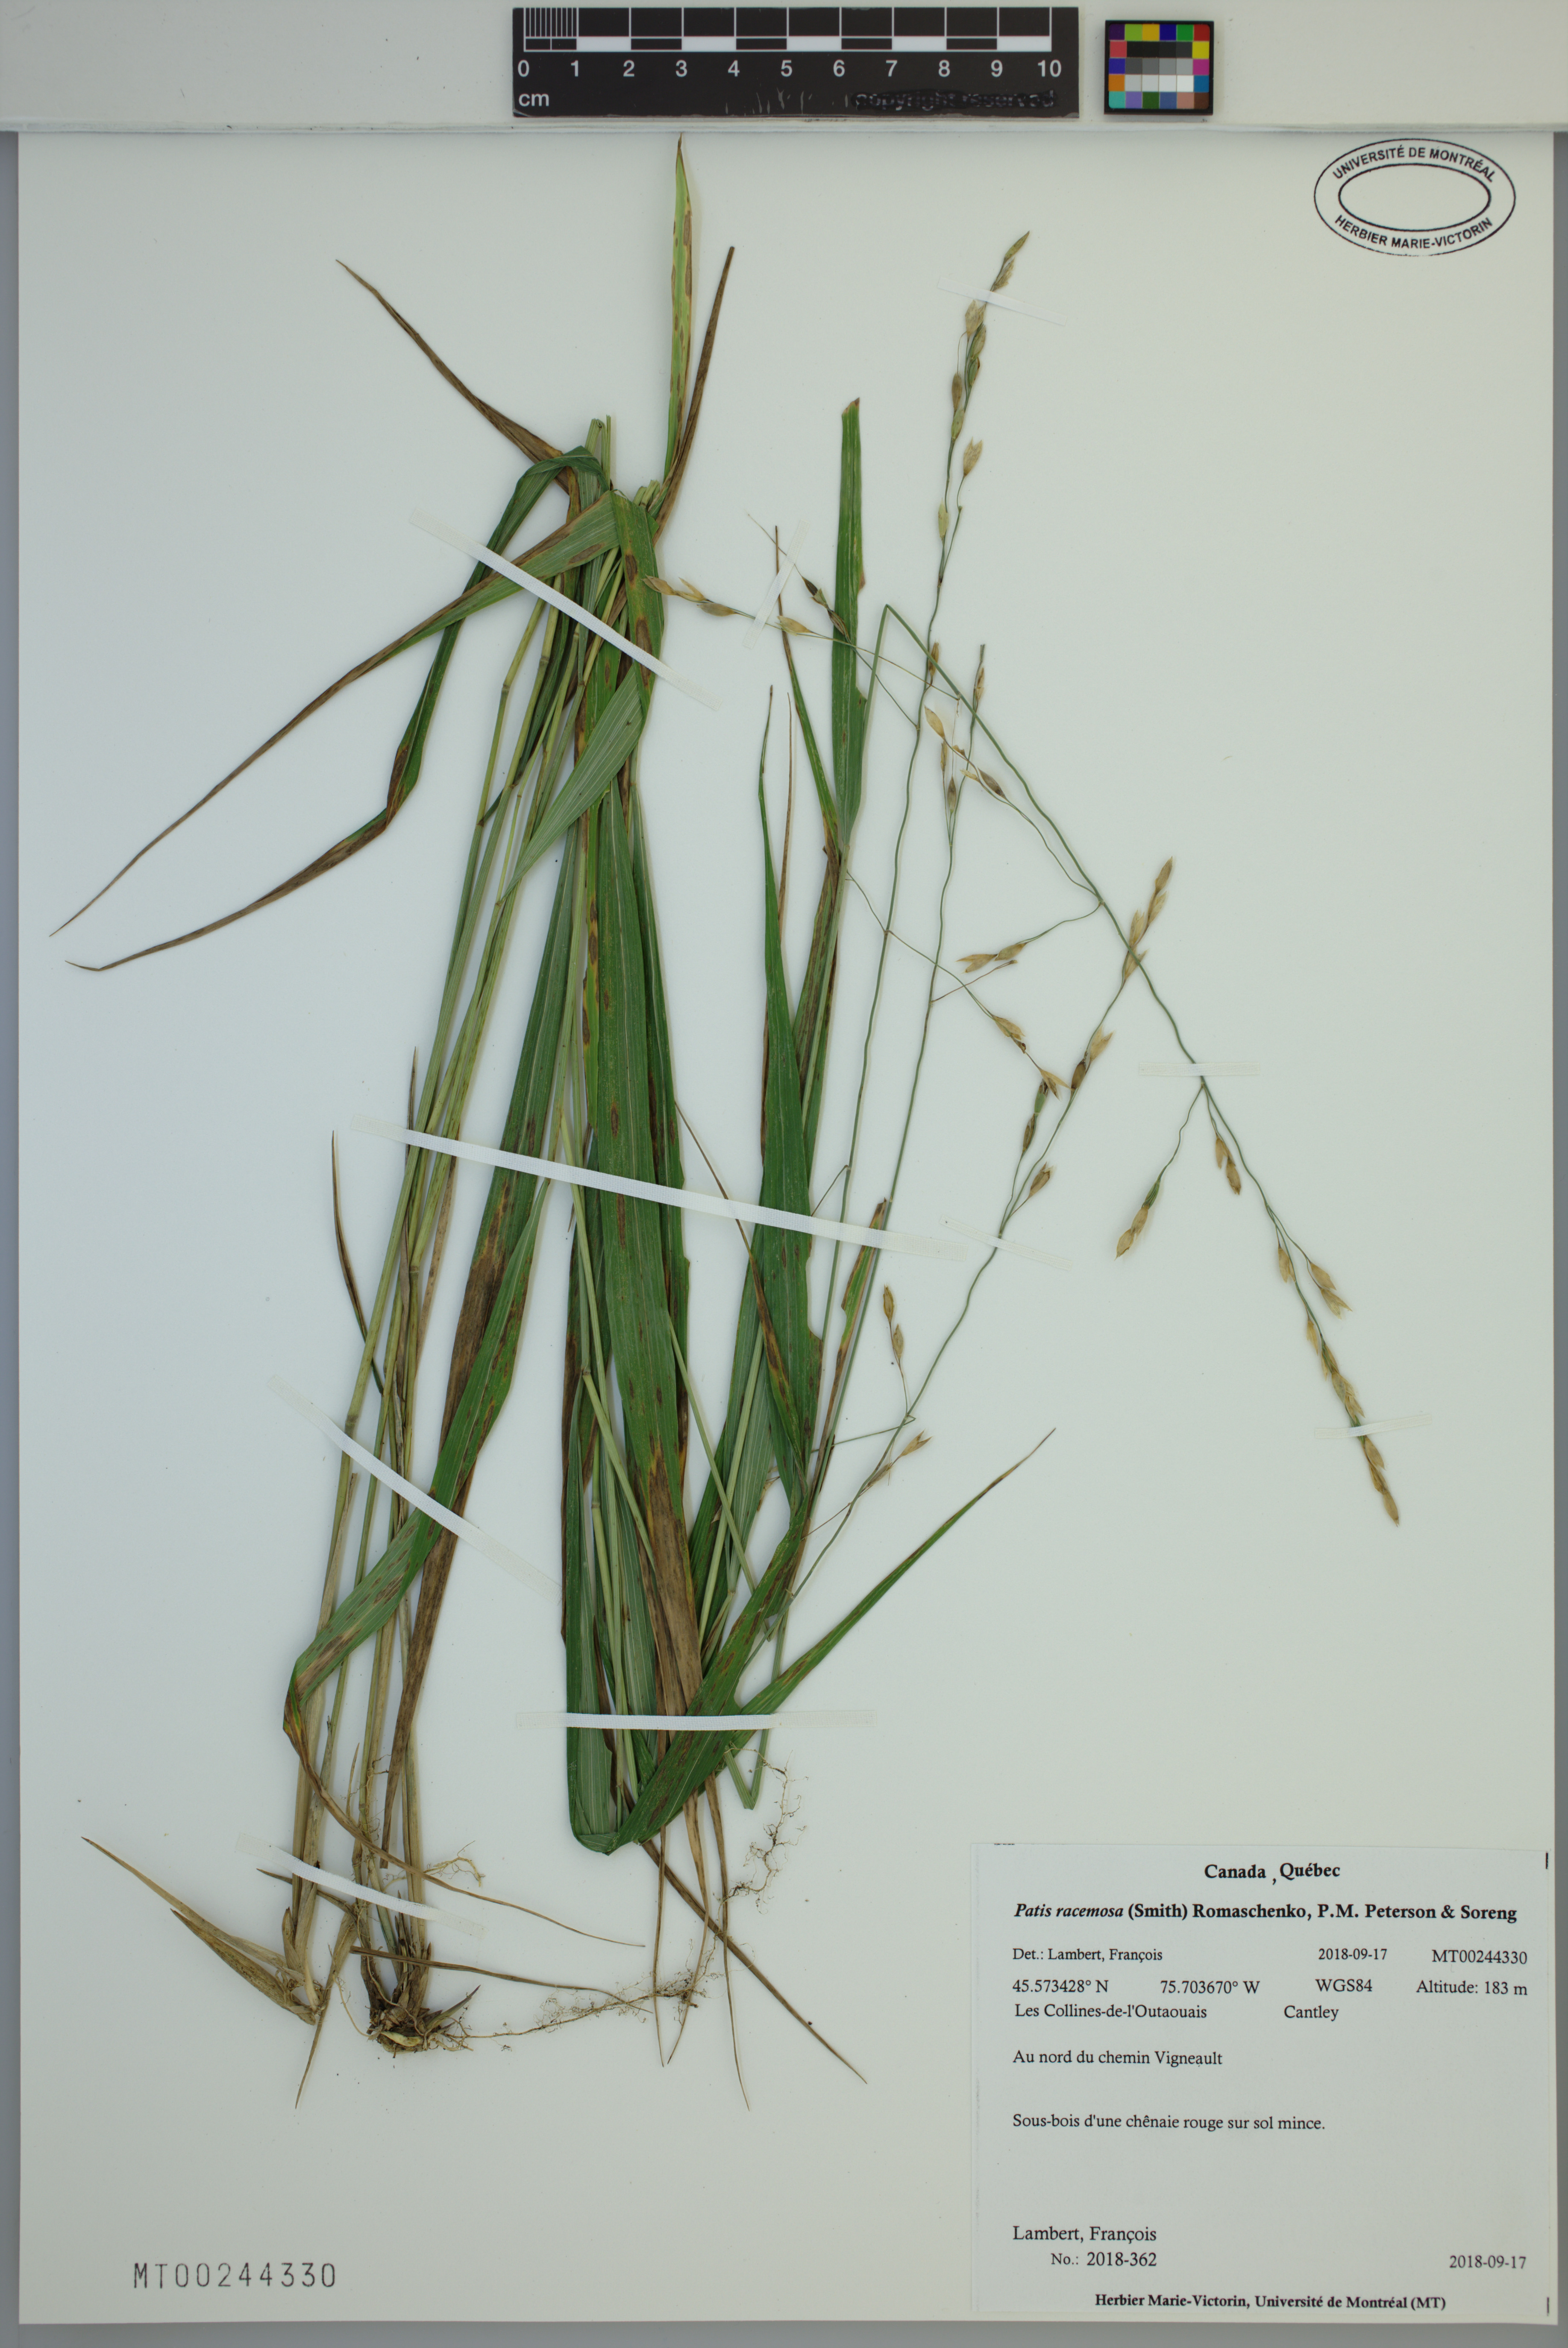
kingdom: Plantae
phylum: Tracheophyta
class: Liliopsida
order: Poales
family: Poaceae
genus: Patis
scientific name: Patis racemosa
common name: Black-fruited mountain rice
